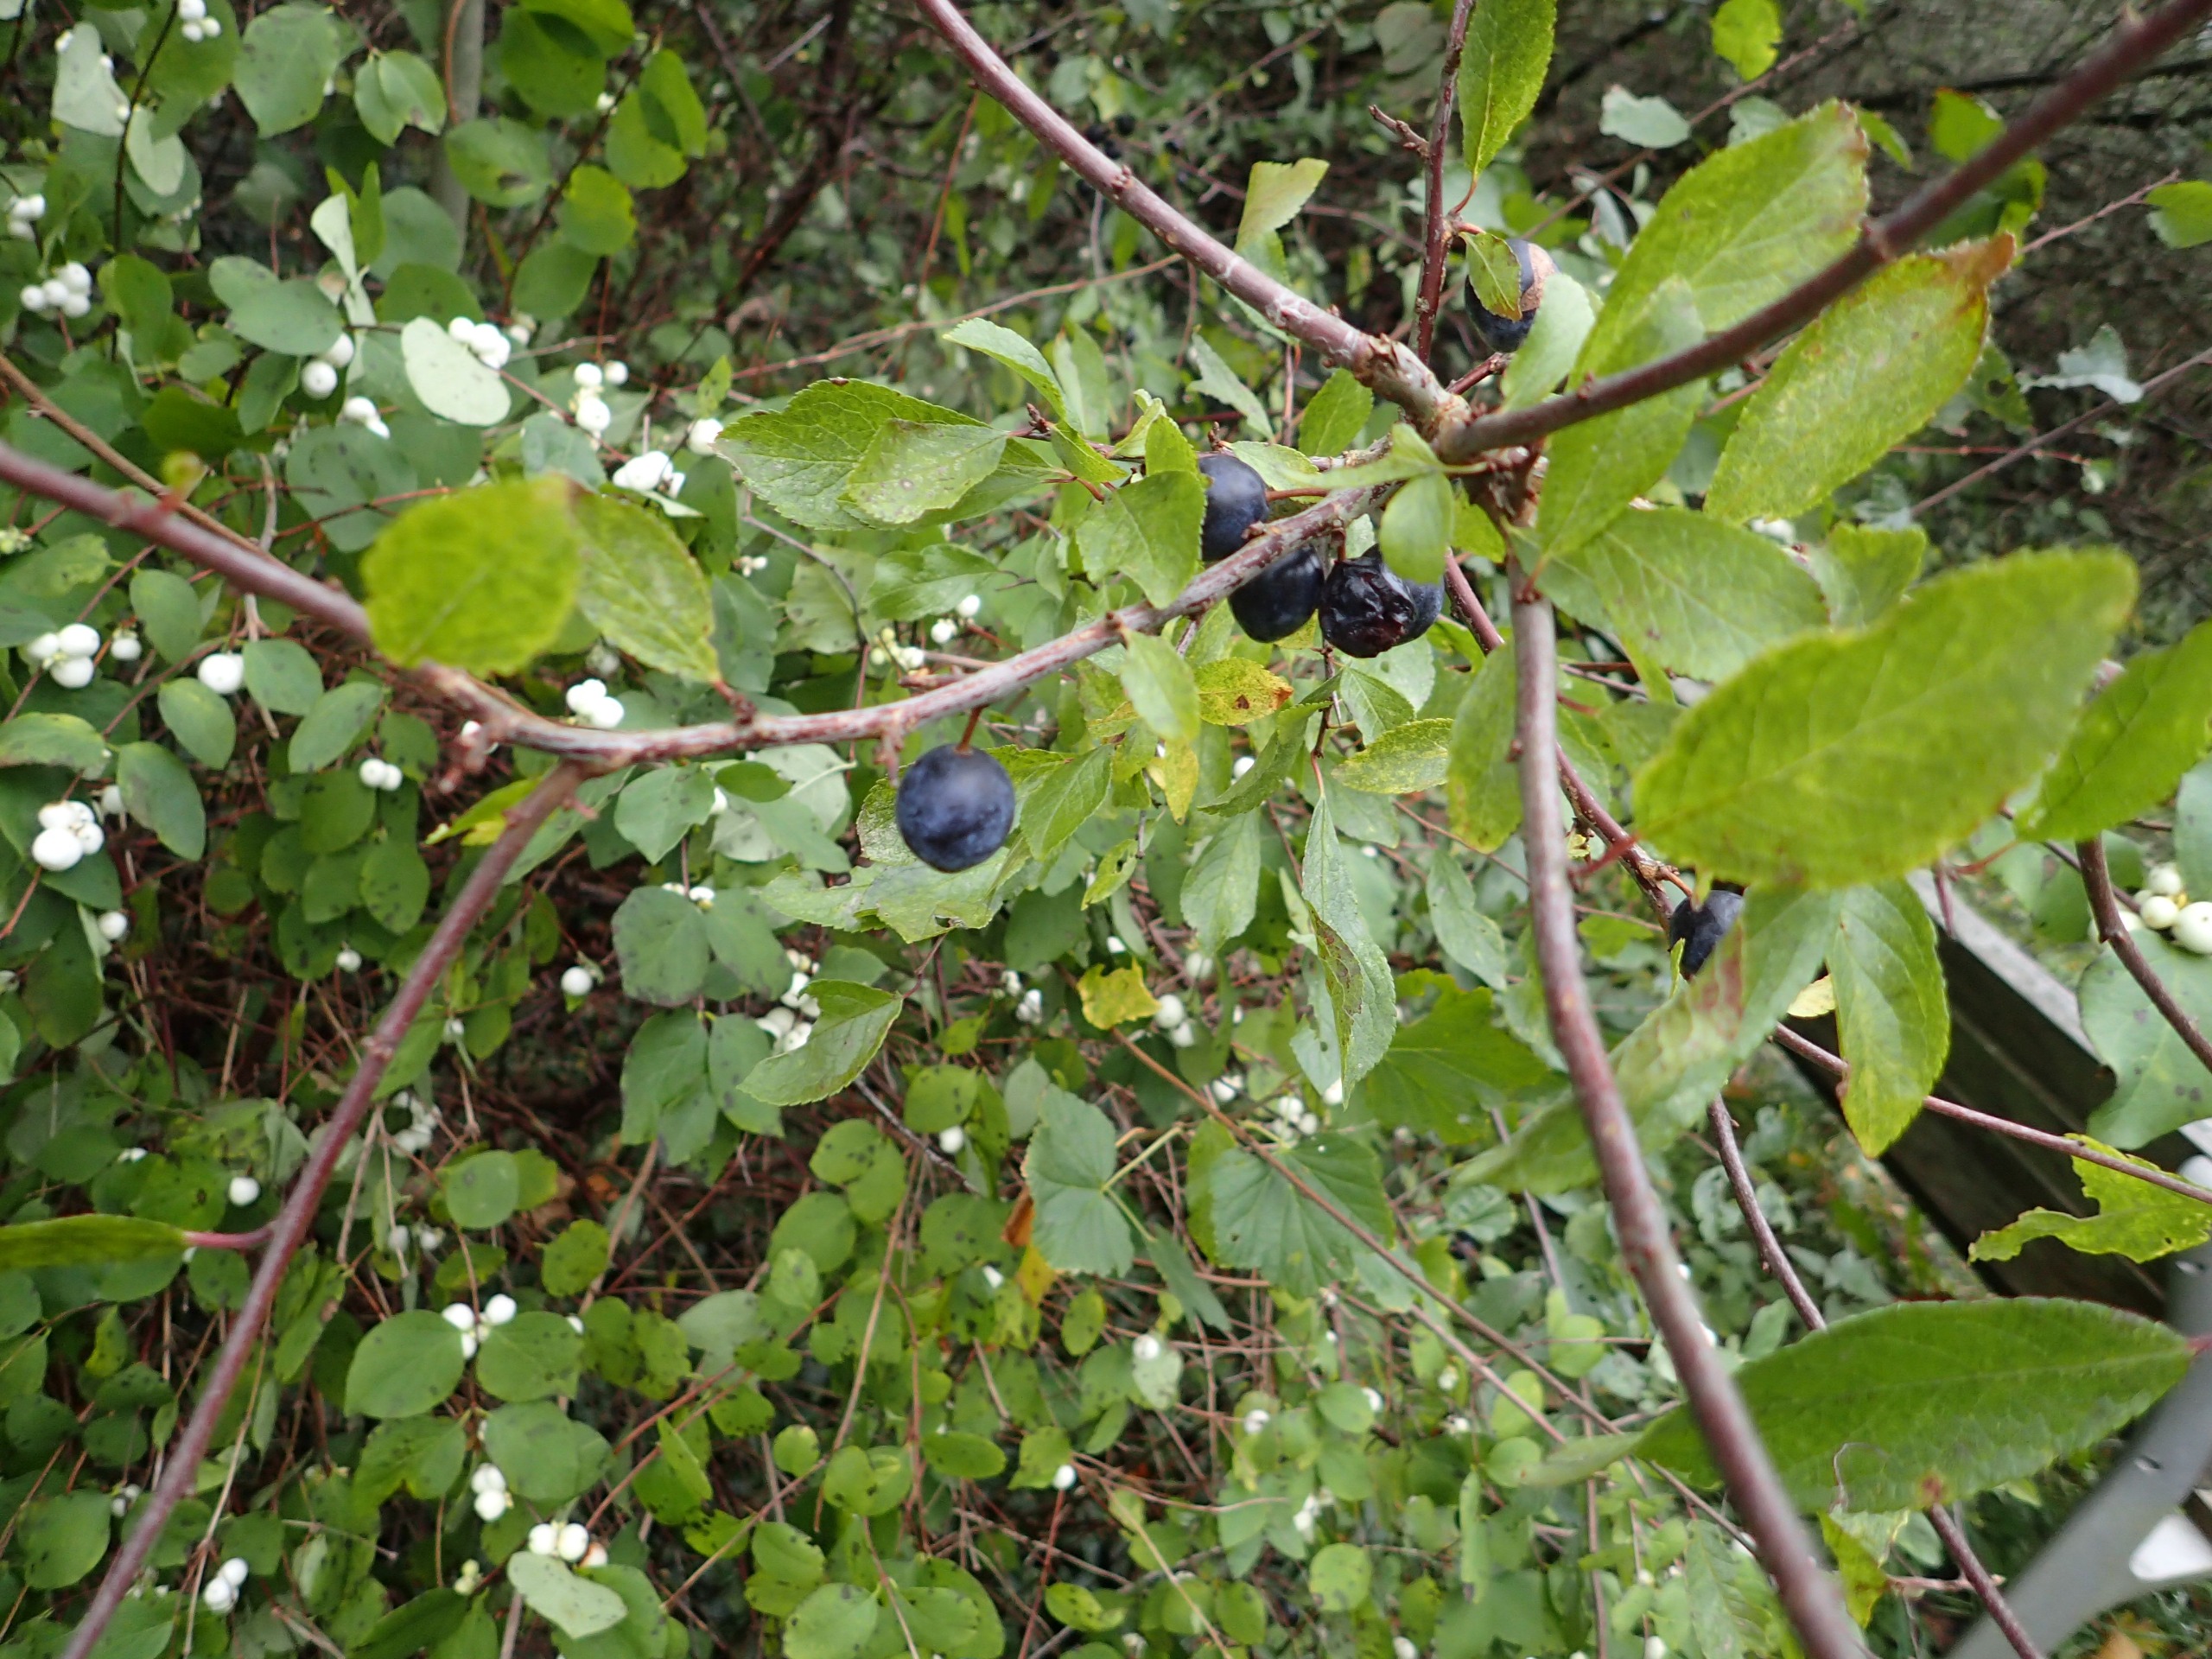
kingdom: Plantae
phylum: Tracheophyta
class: Magnoliopsida
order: Rosales
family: Rosaceae
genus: Prunus
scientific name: Prunus spinosa
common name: Slåen
